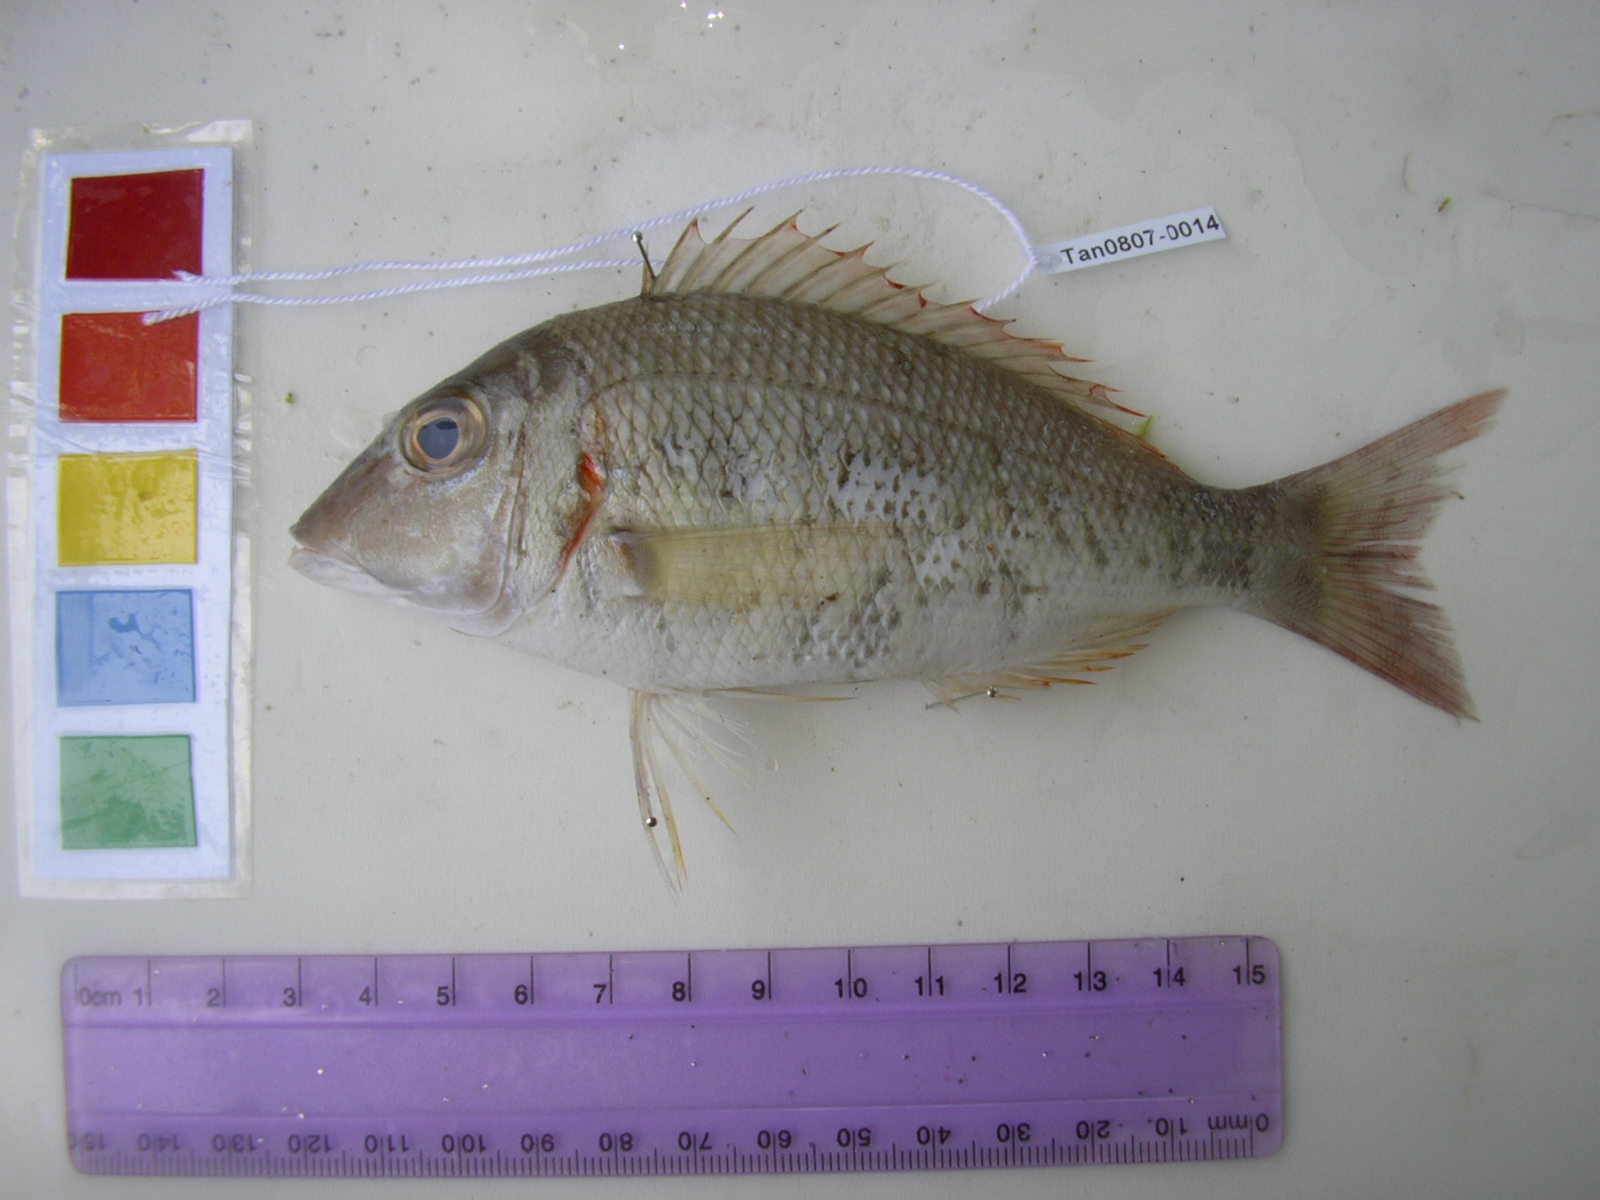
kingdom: Animalia
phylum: Chordata
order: Perciformes
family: Lethrinidae
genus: Lethrinus
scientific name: Lethrinus crocineus
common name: Yellowtail emperor
